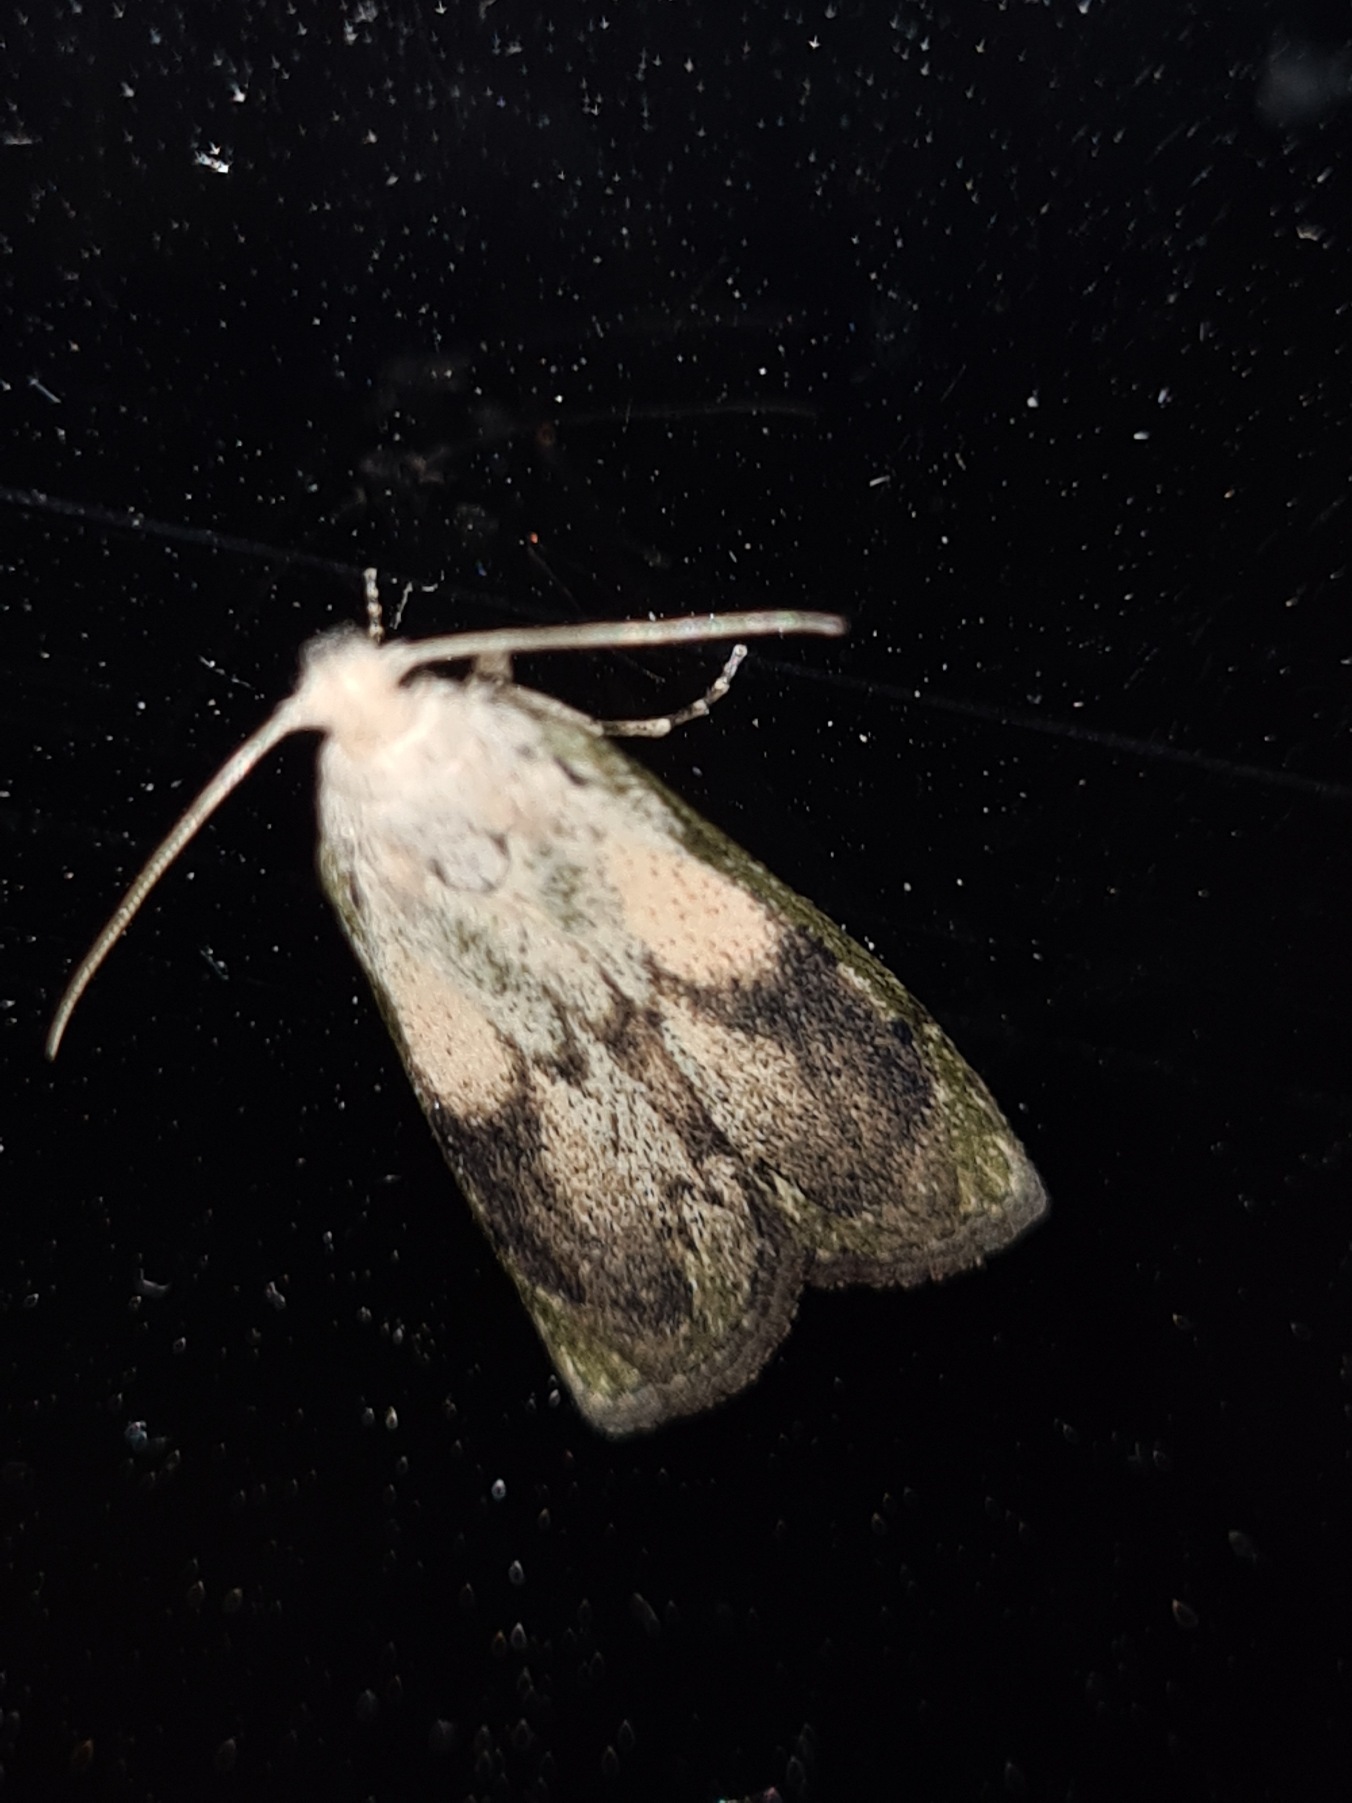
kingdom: Animalia
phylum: Arthropoda
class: Insecta
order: Lepidoptera
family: Pyralidae
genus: Aphomia
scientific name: Aphomia sociella
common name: Humlevoksmøl
